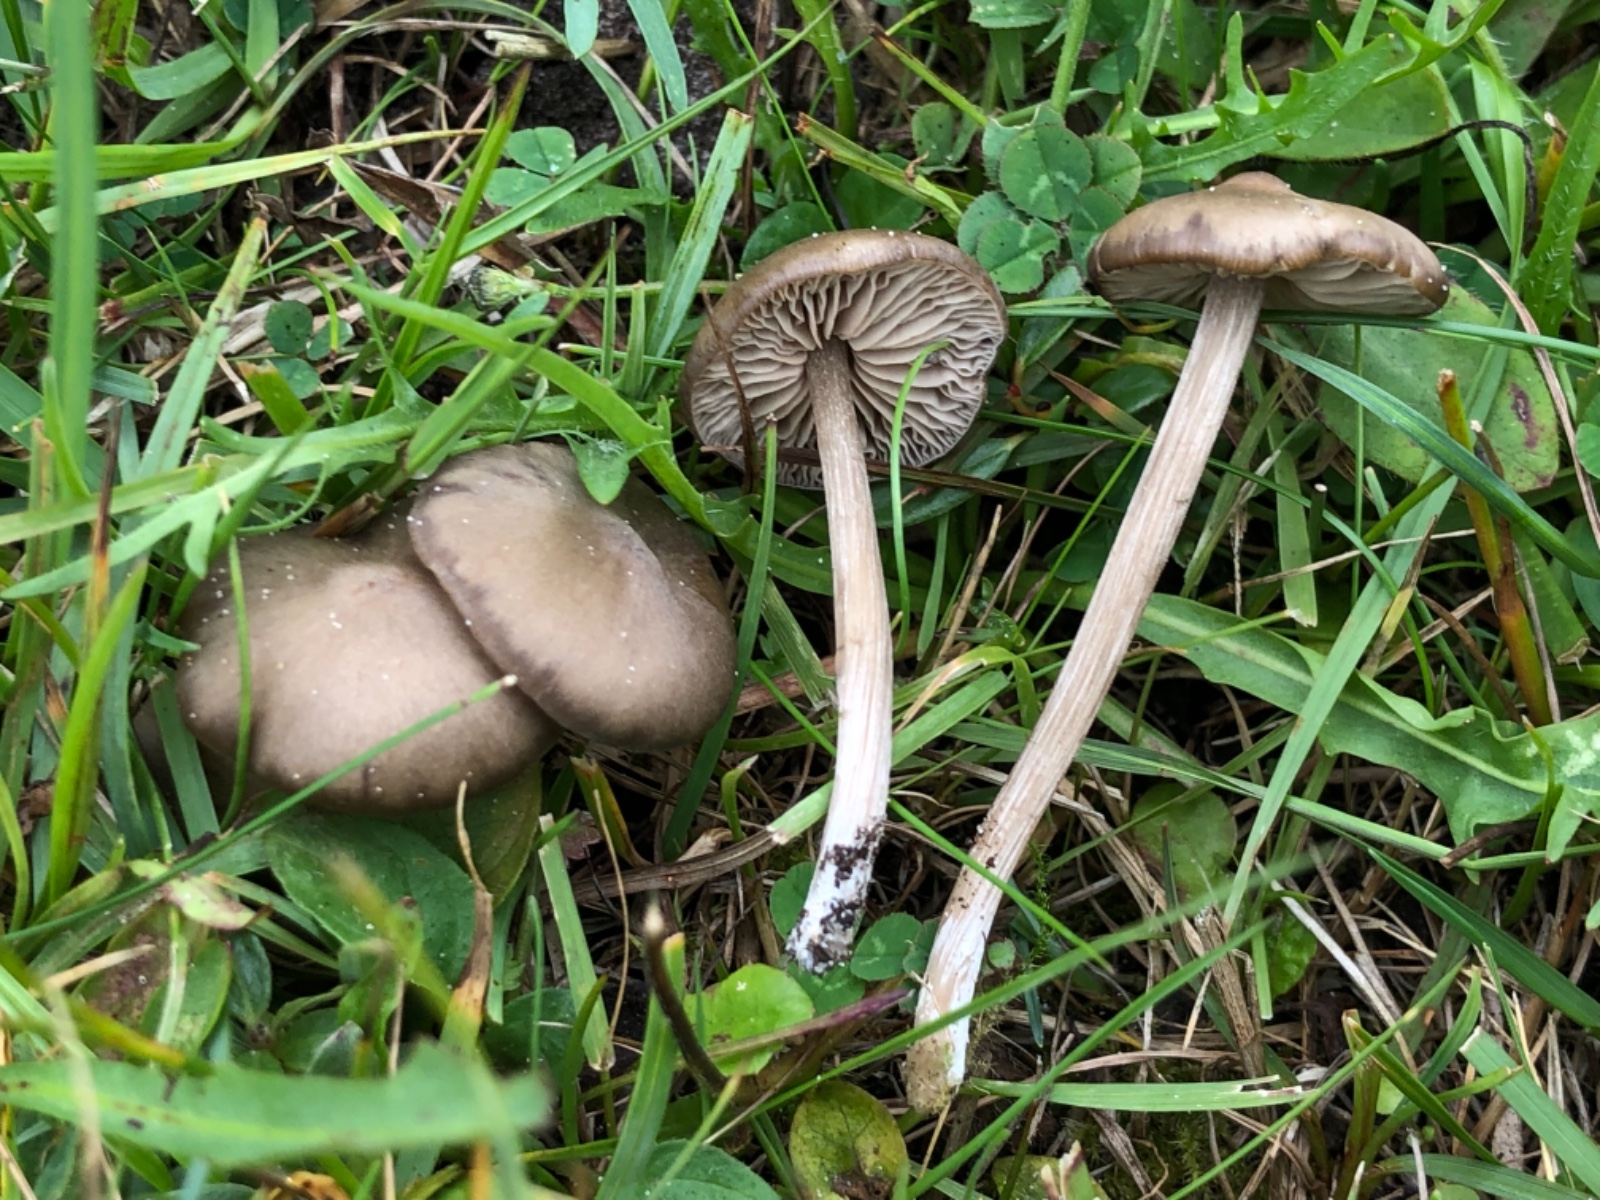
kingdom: Fungi
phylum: Basidiomycota
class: Agaricomycetes
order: Agaricales
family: Entolomataceae
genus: Entoloma
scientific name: Entoloma sericeum
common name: silkeglinsende rødblad
